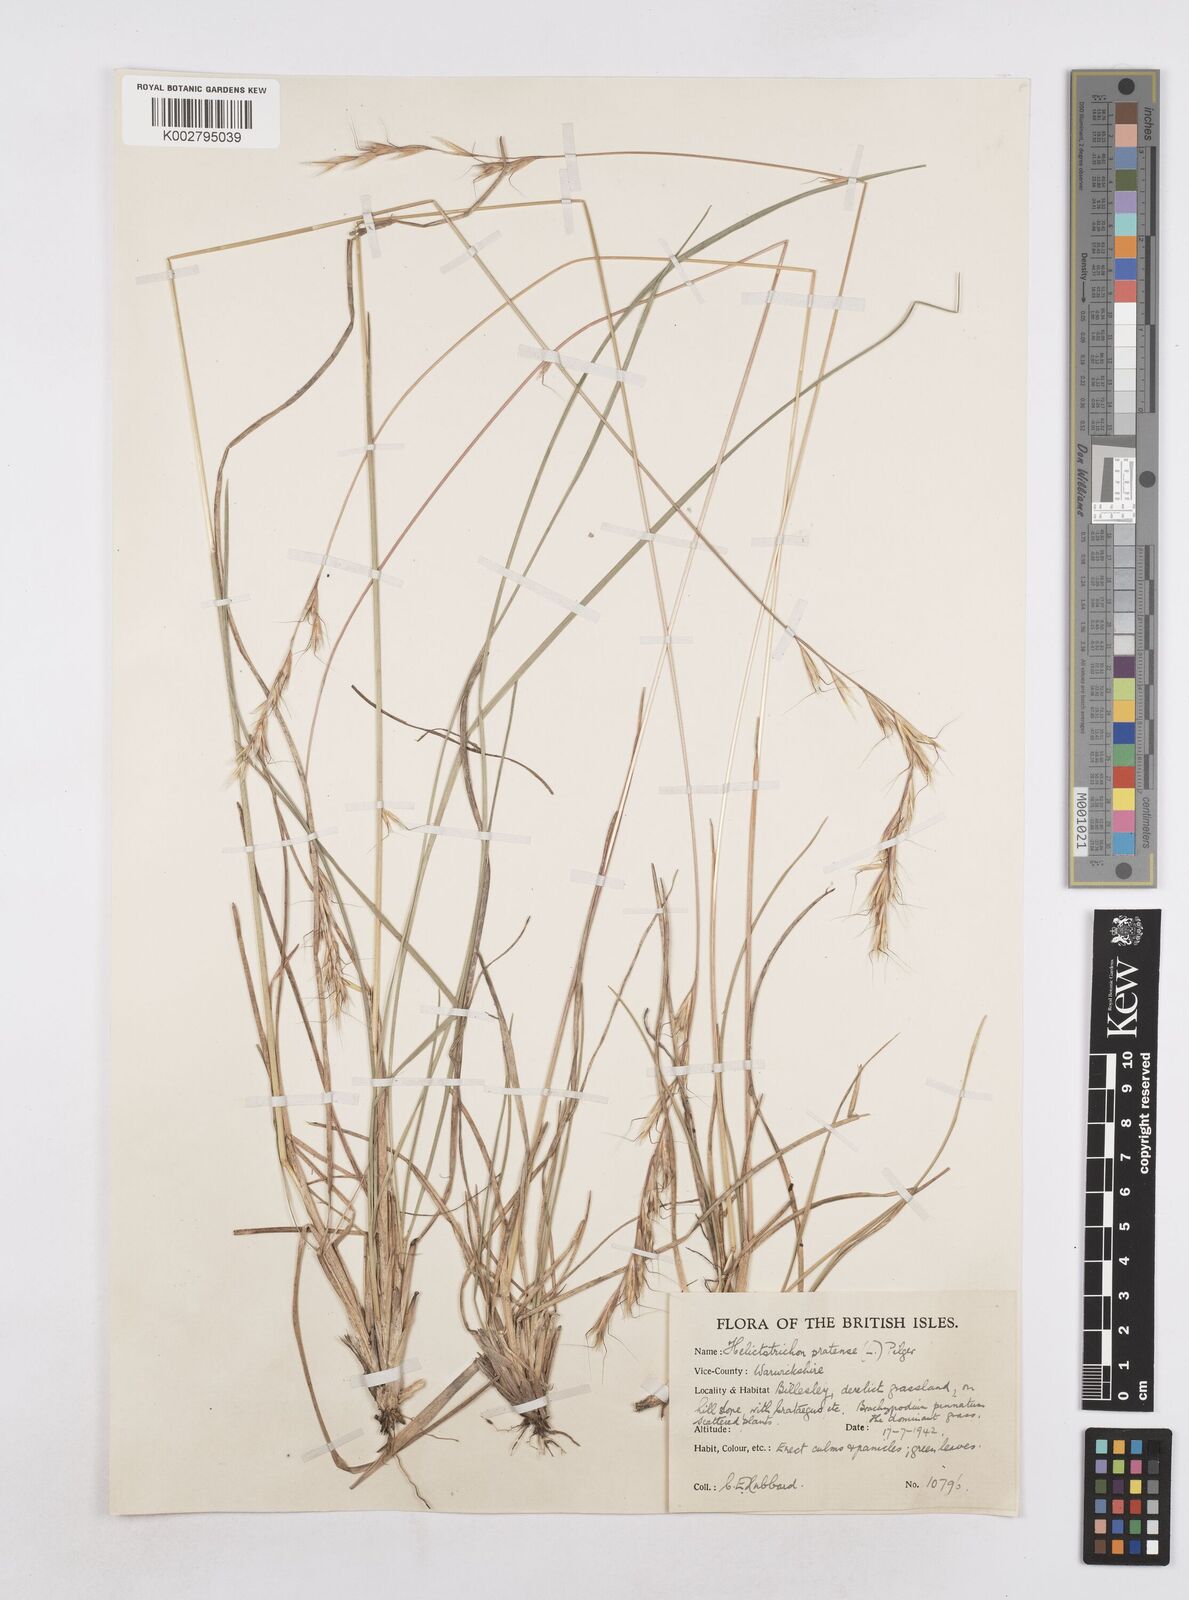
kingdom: Plantae
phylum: Tracheophyta
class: Liliopsida
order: Poales
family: Poaceae
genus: Helictochloa
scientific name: Helictochloa pratensis
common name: Meadow oat grass
